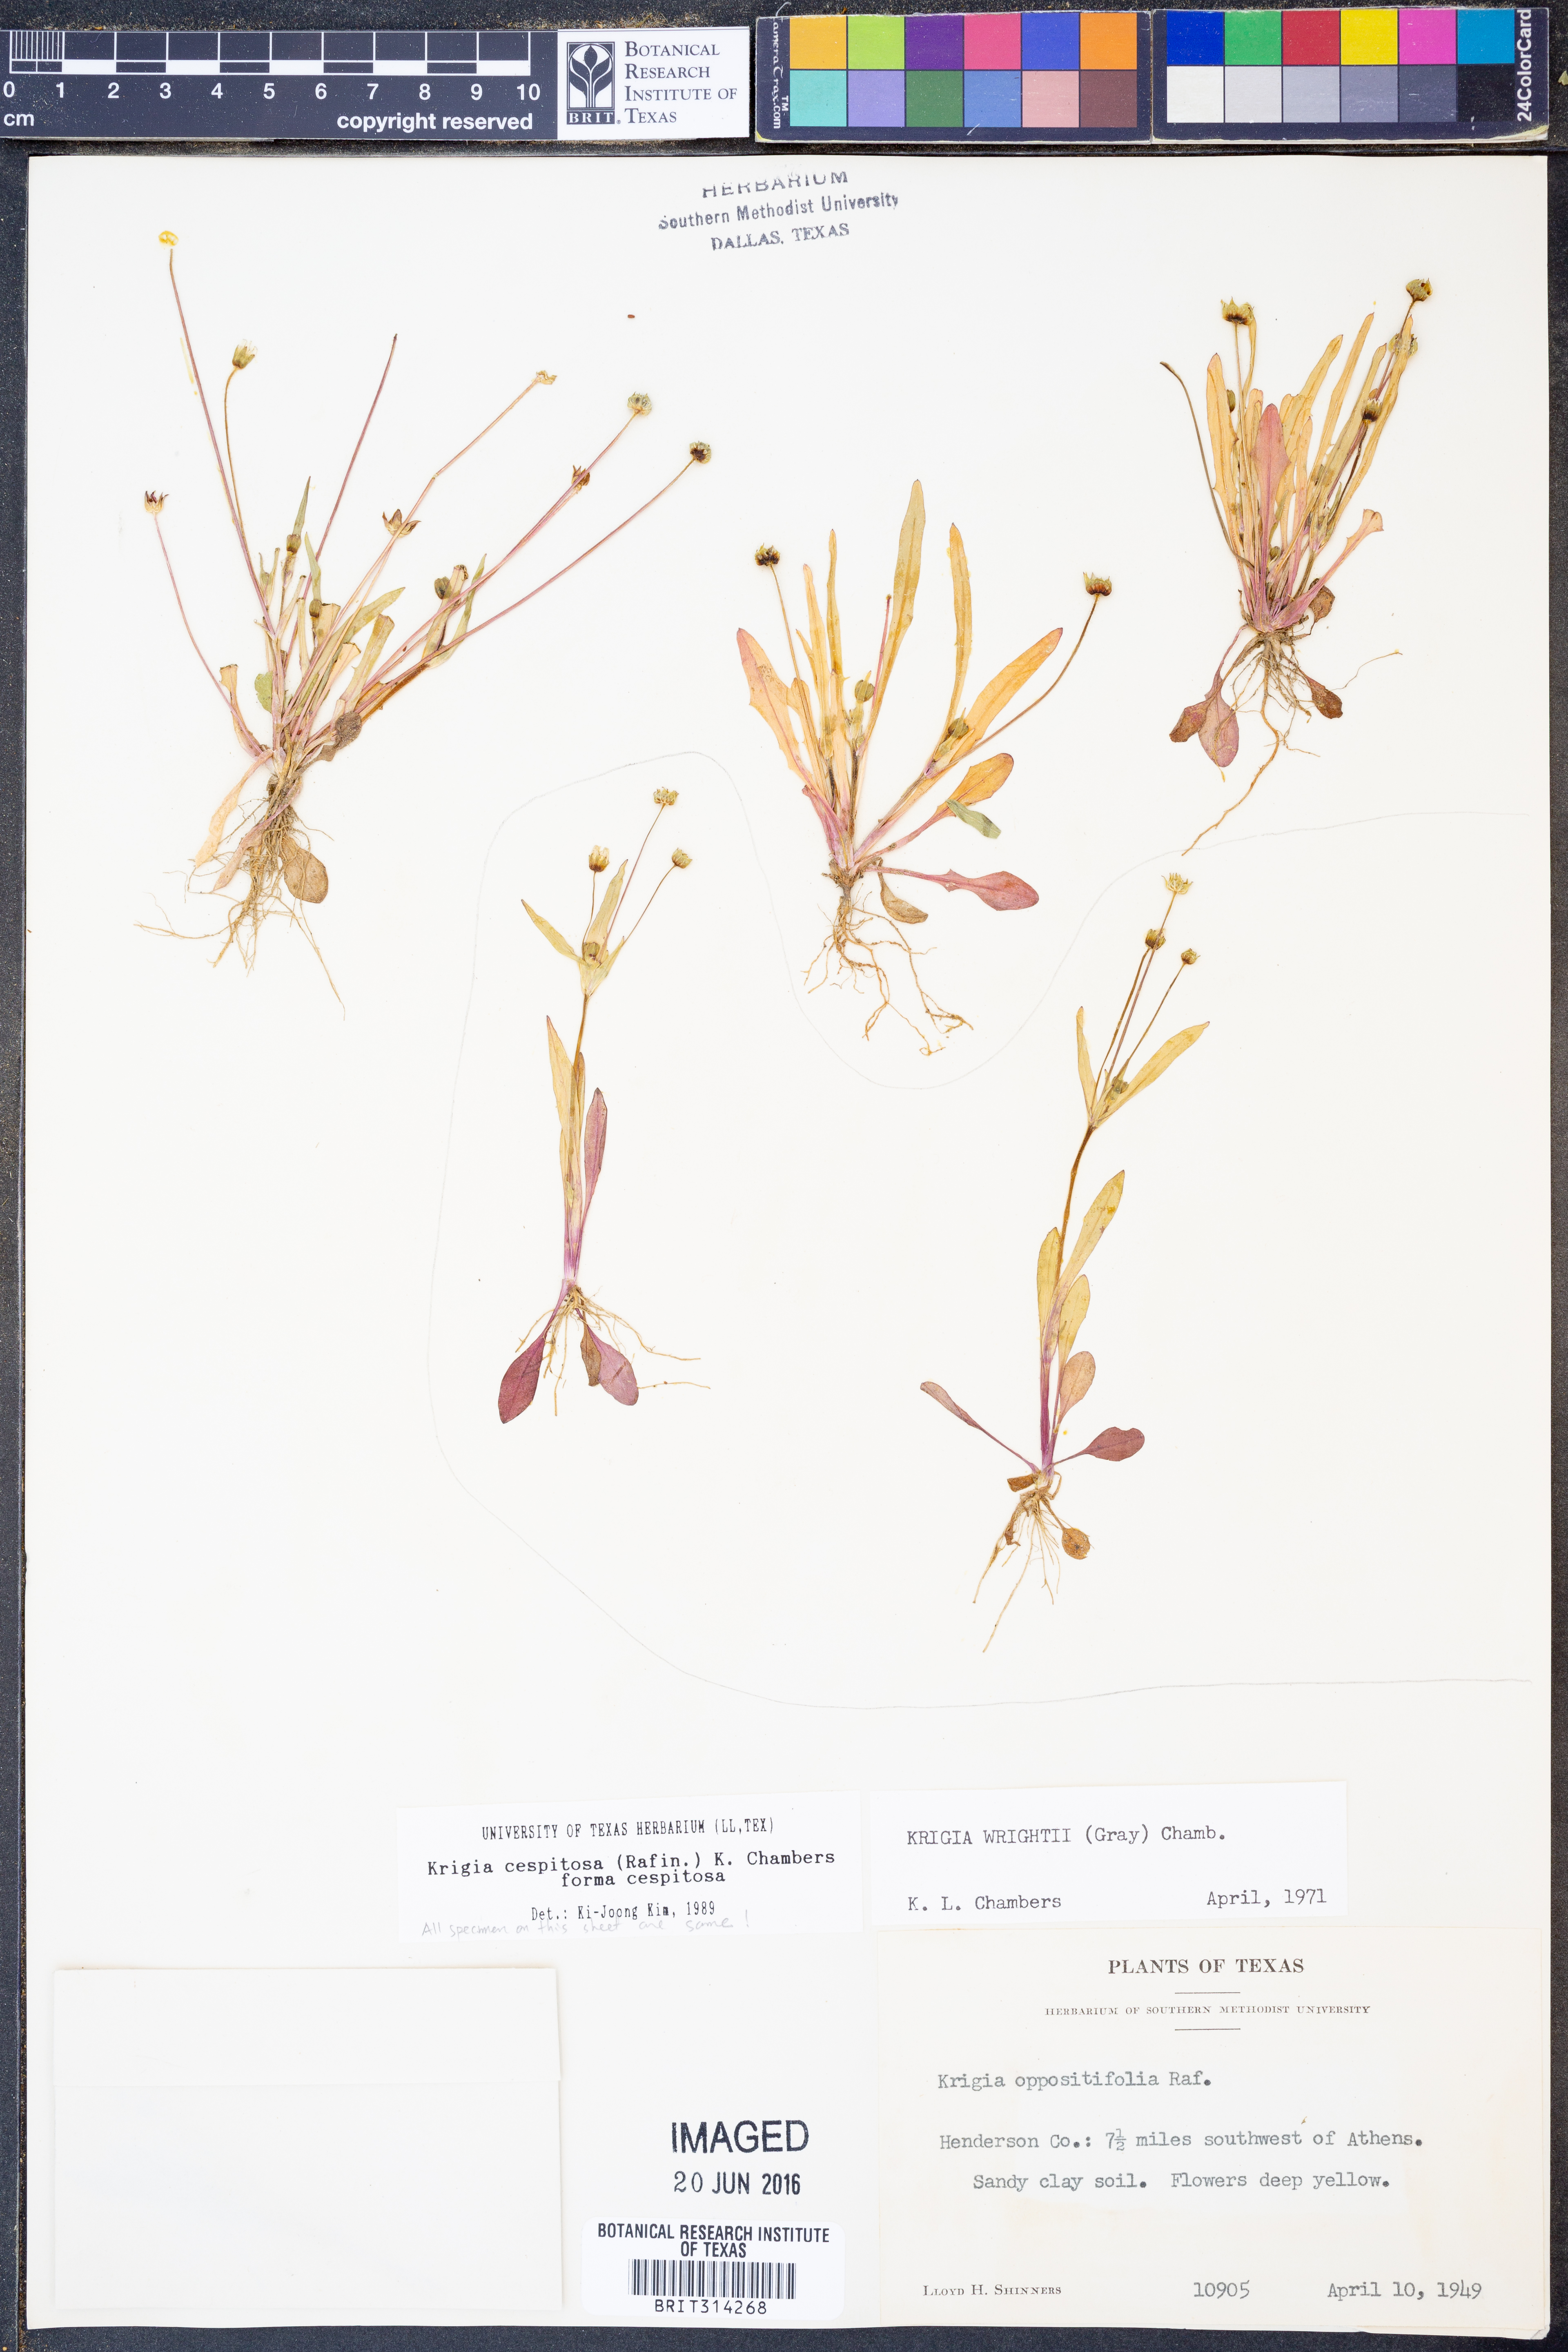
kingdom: Plantae
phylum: Tracheophyta
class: Magnoliopsida
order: Asterales
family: Asteraceae
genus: Krigia
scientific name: Krigia cespitosa
